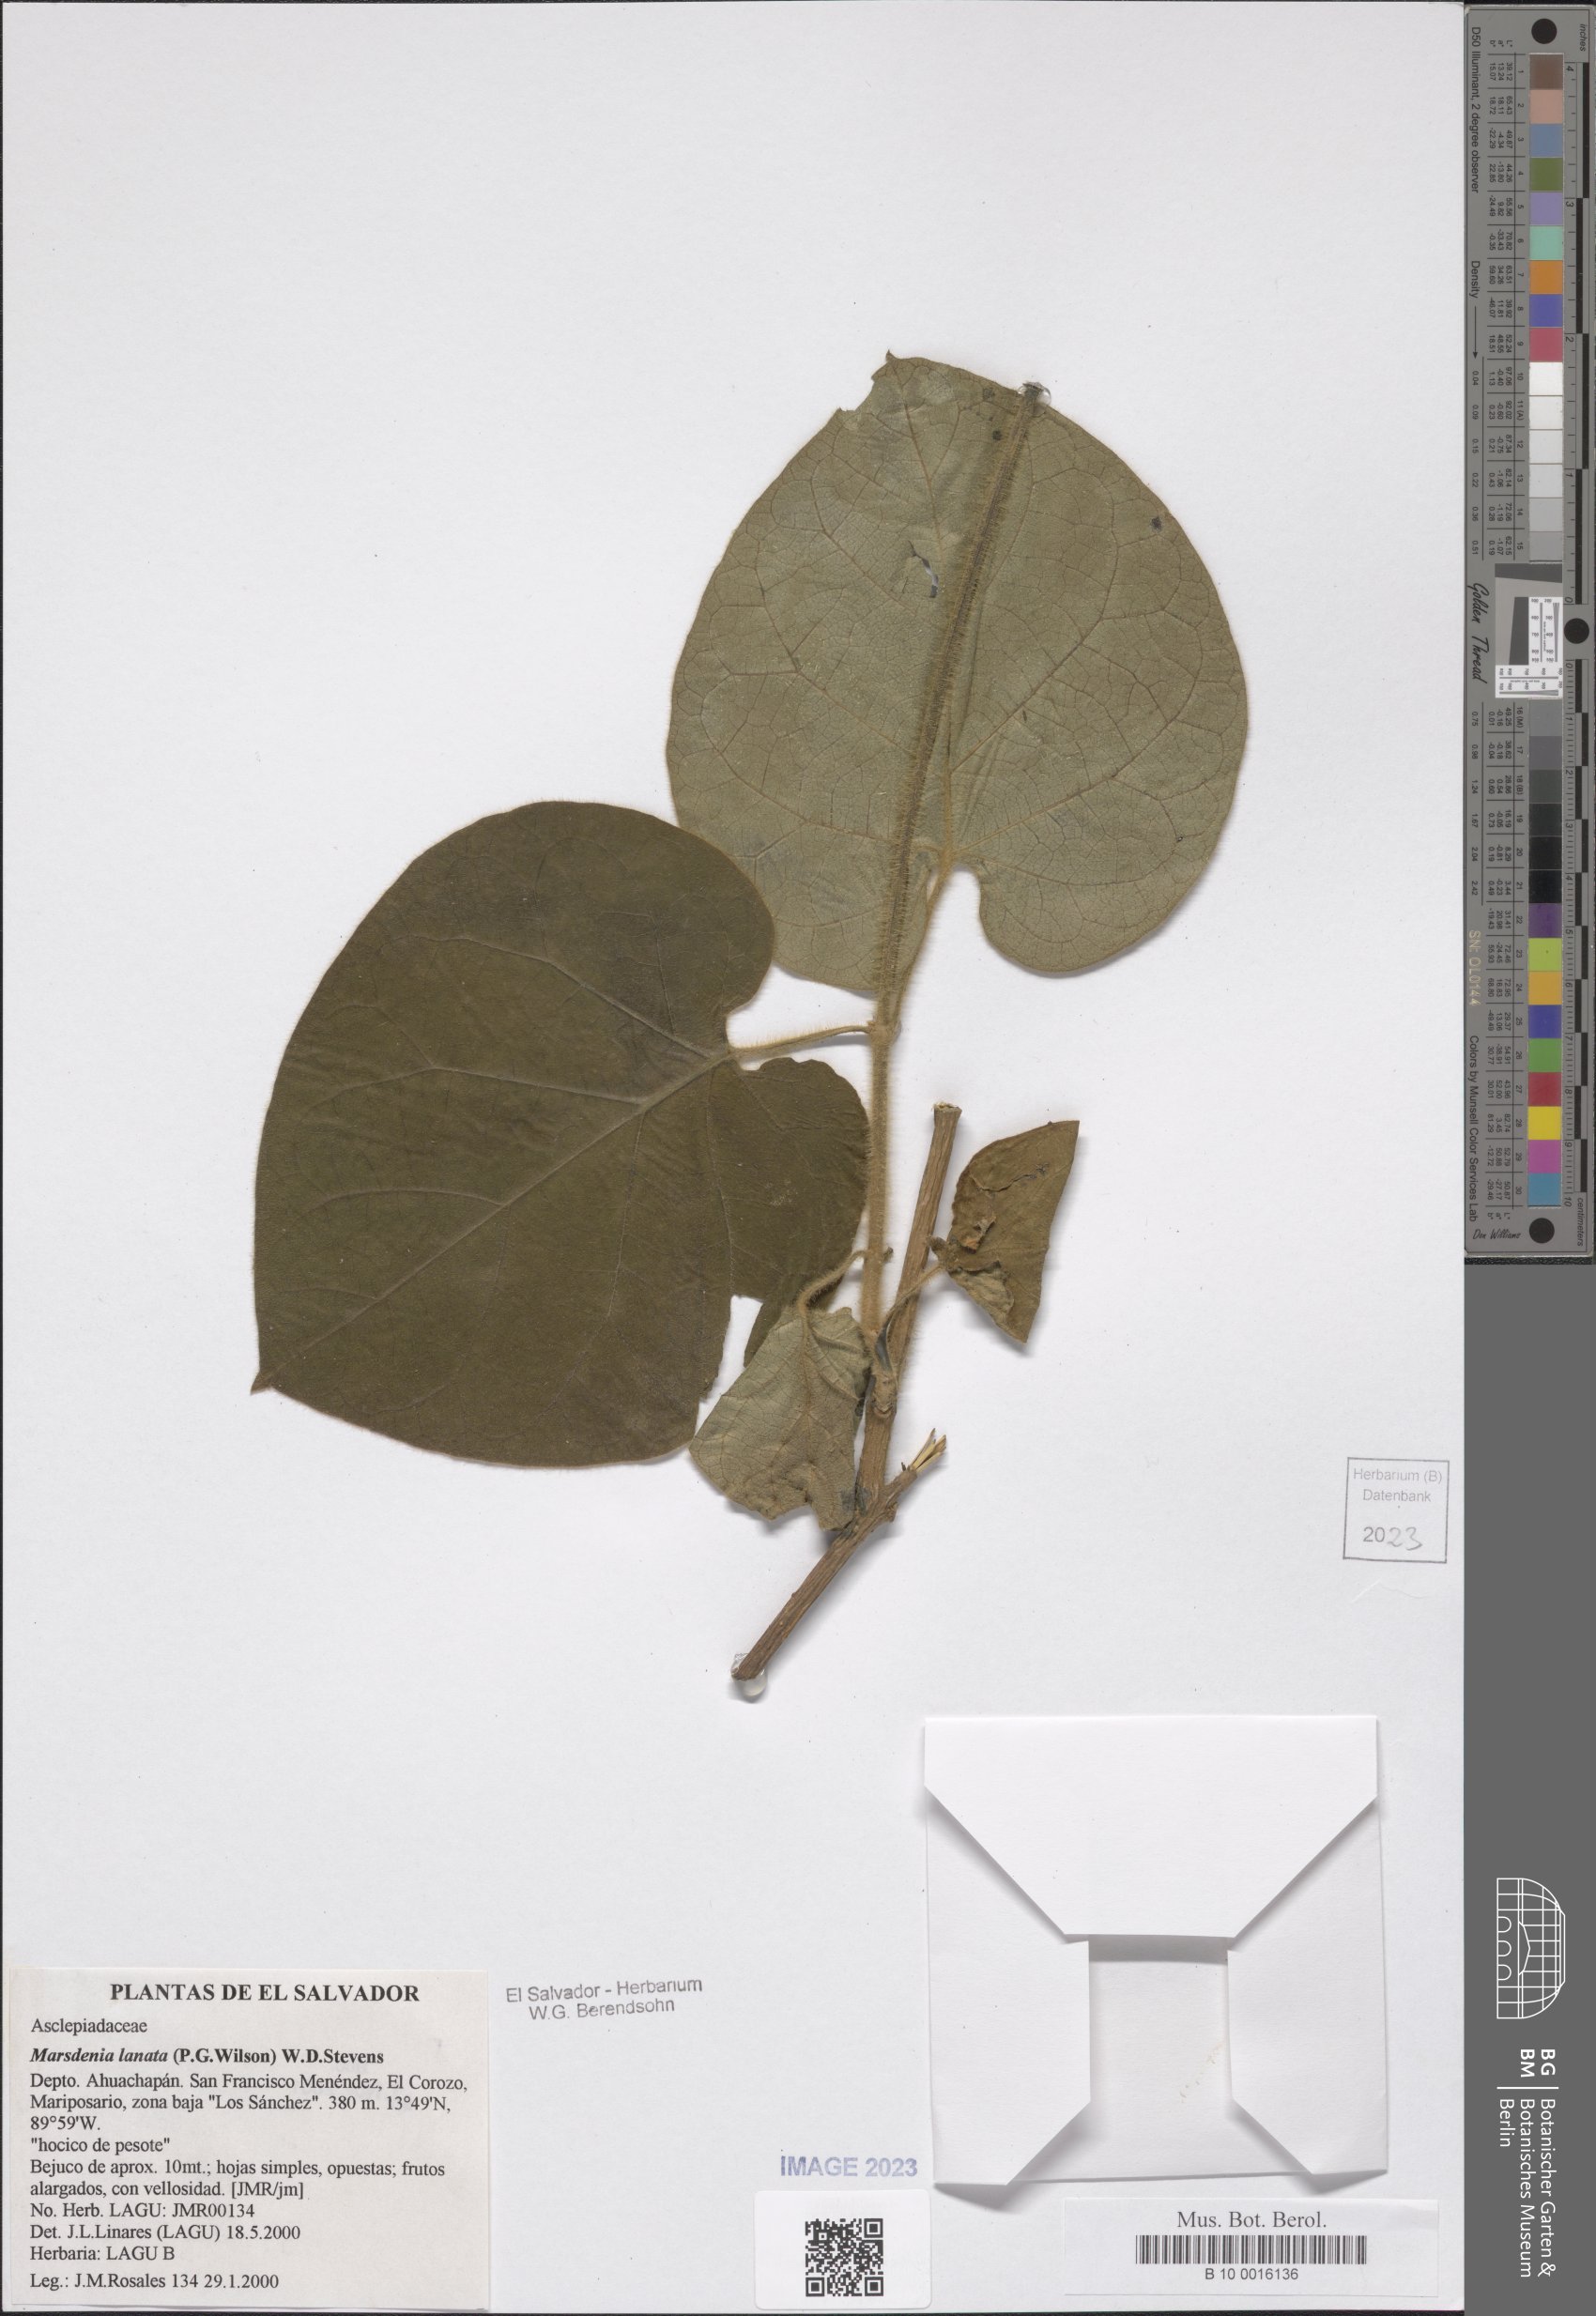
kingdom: Plantae
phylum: Tracheophyta
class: Magnoliopsida
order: Gentianales
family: Apocynaceae
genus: Ruehssia
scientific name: Ruehssia lanata
